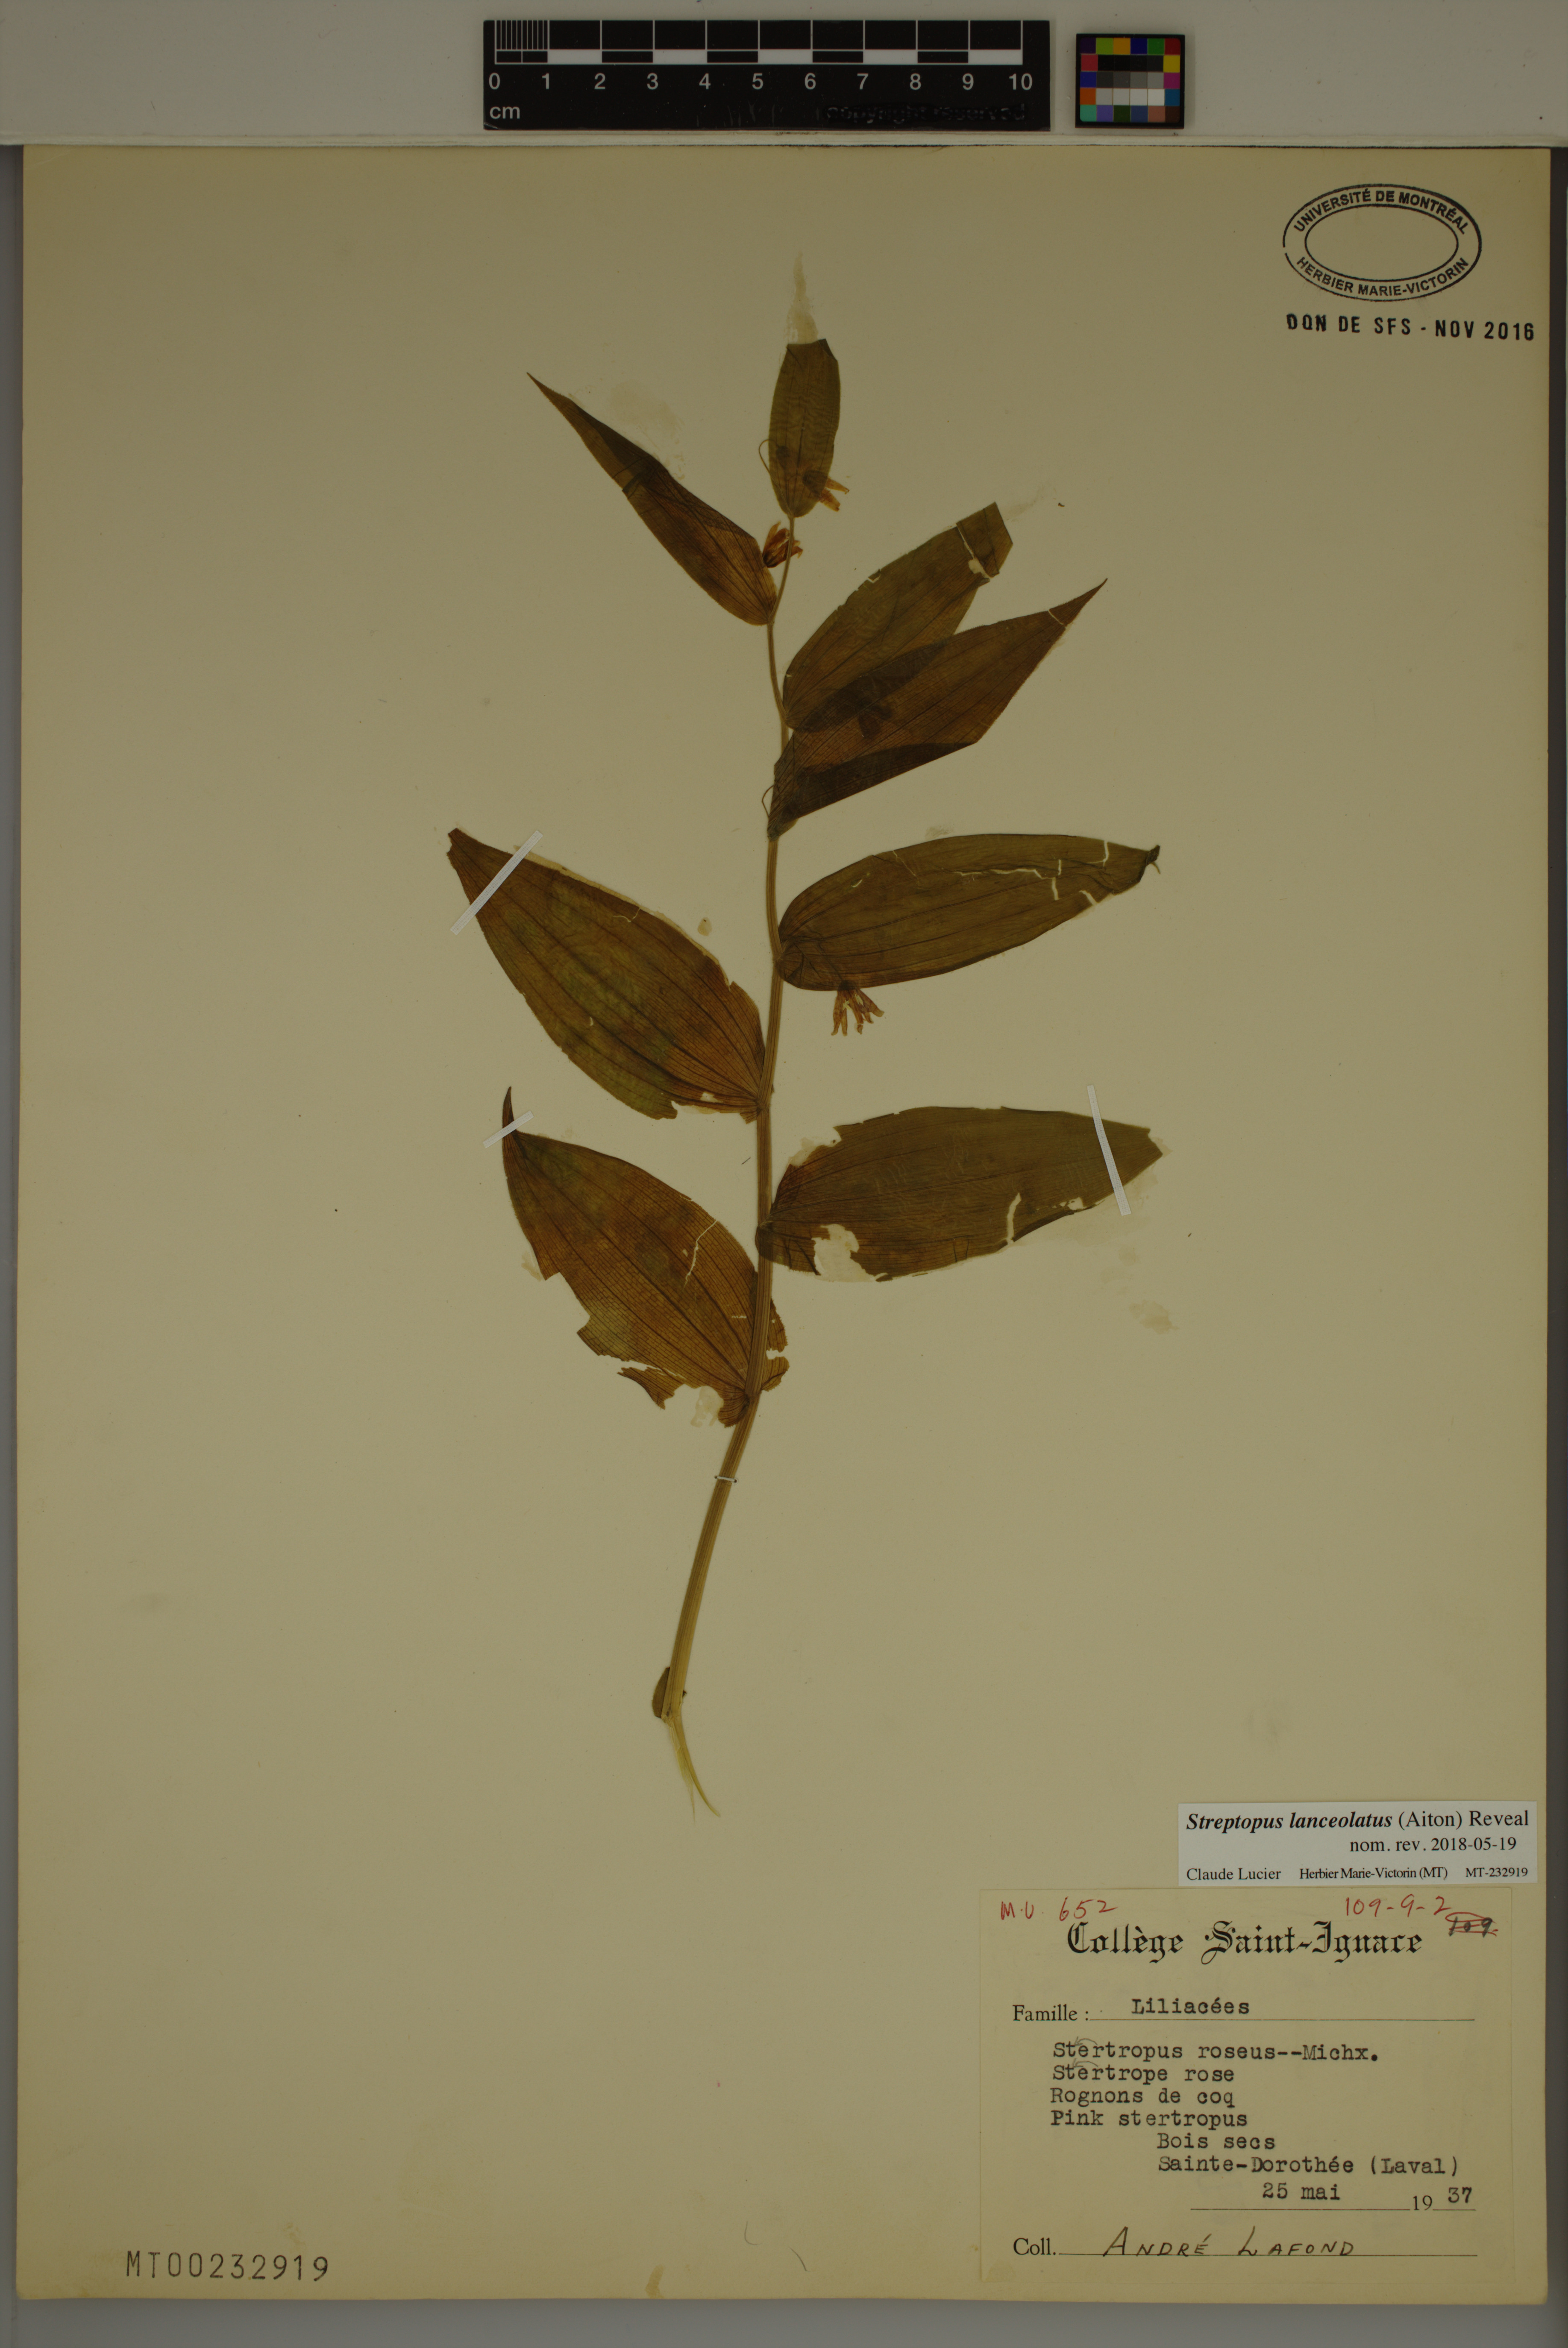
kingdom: Plantae
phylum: Tracheophyta
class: Liliopsida
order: Liliales
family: Liliaceae
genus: Streptopus
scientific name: Streptopus lanceolatus
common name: Rose mandarin
